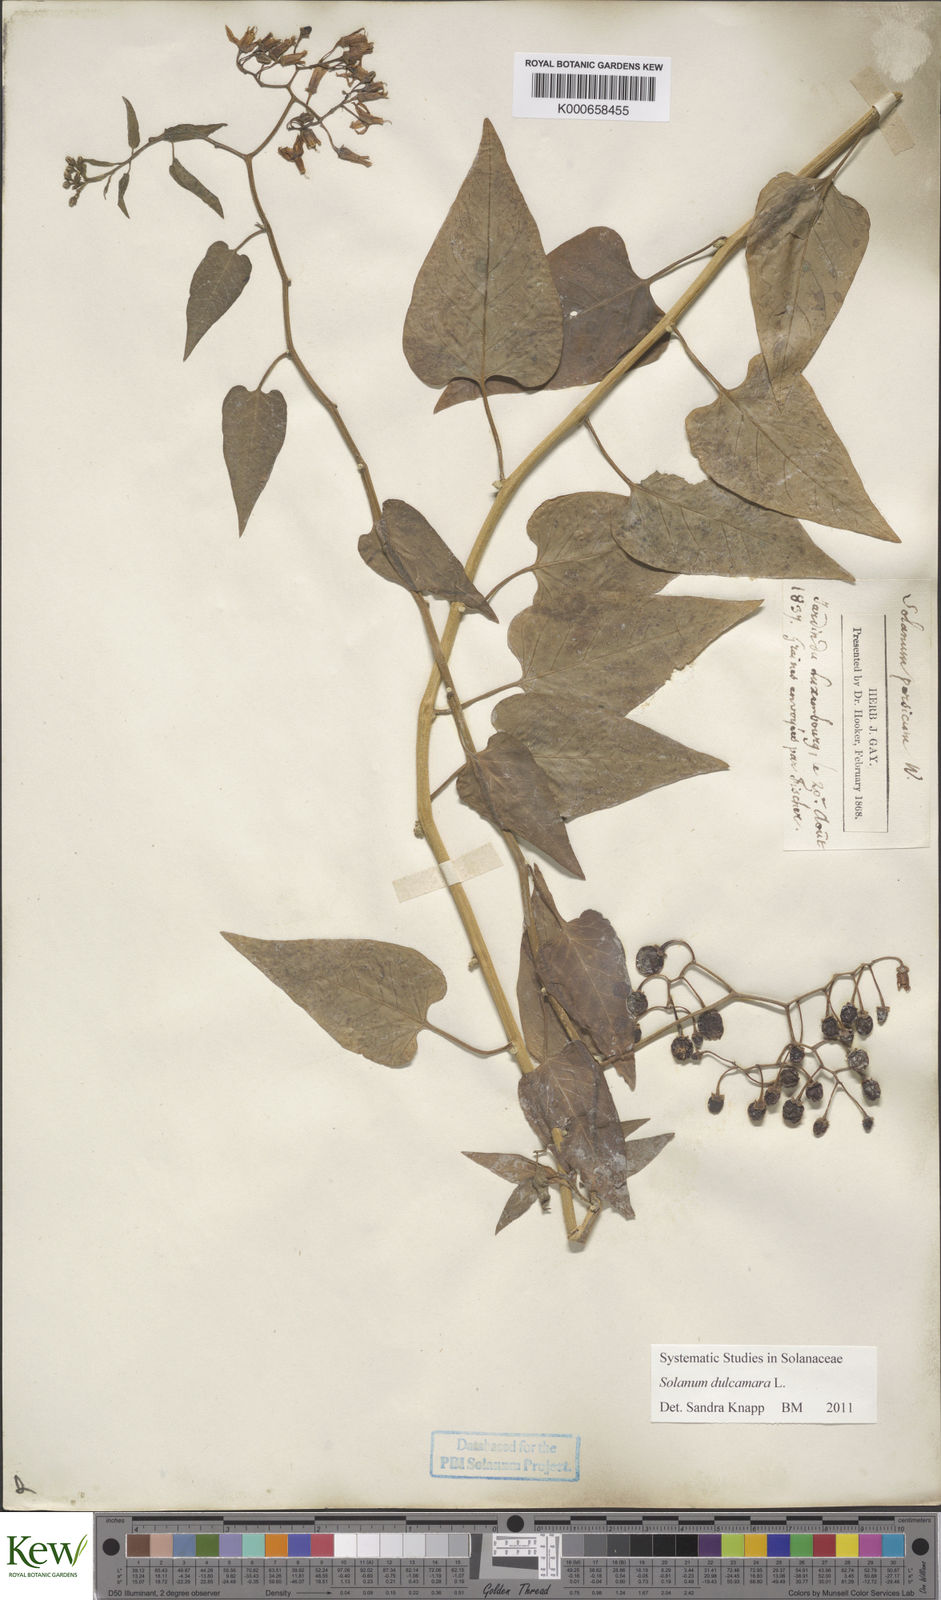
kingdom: Plantae
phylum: Tracheophyta
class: Magnoliopsida
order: Solanales
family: Solanaceae
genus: Solanum
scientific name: Solanum dulcamara
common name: Climbing nightshade
